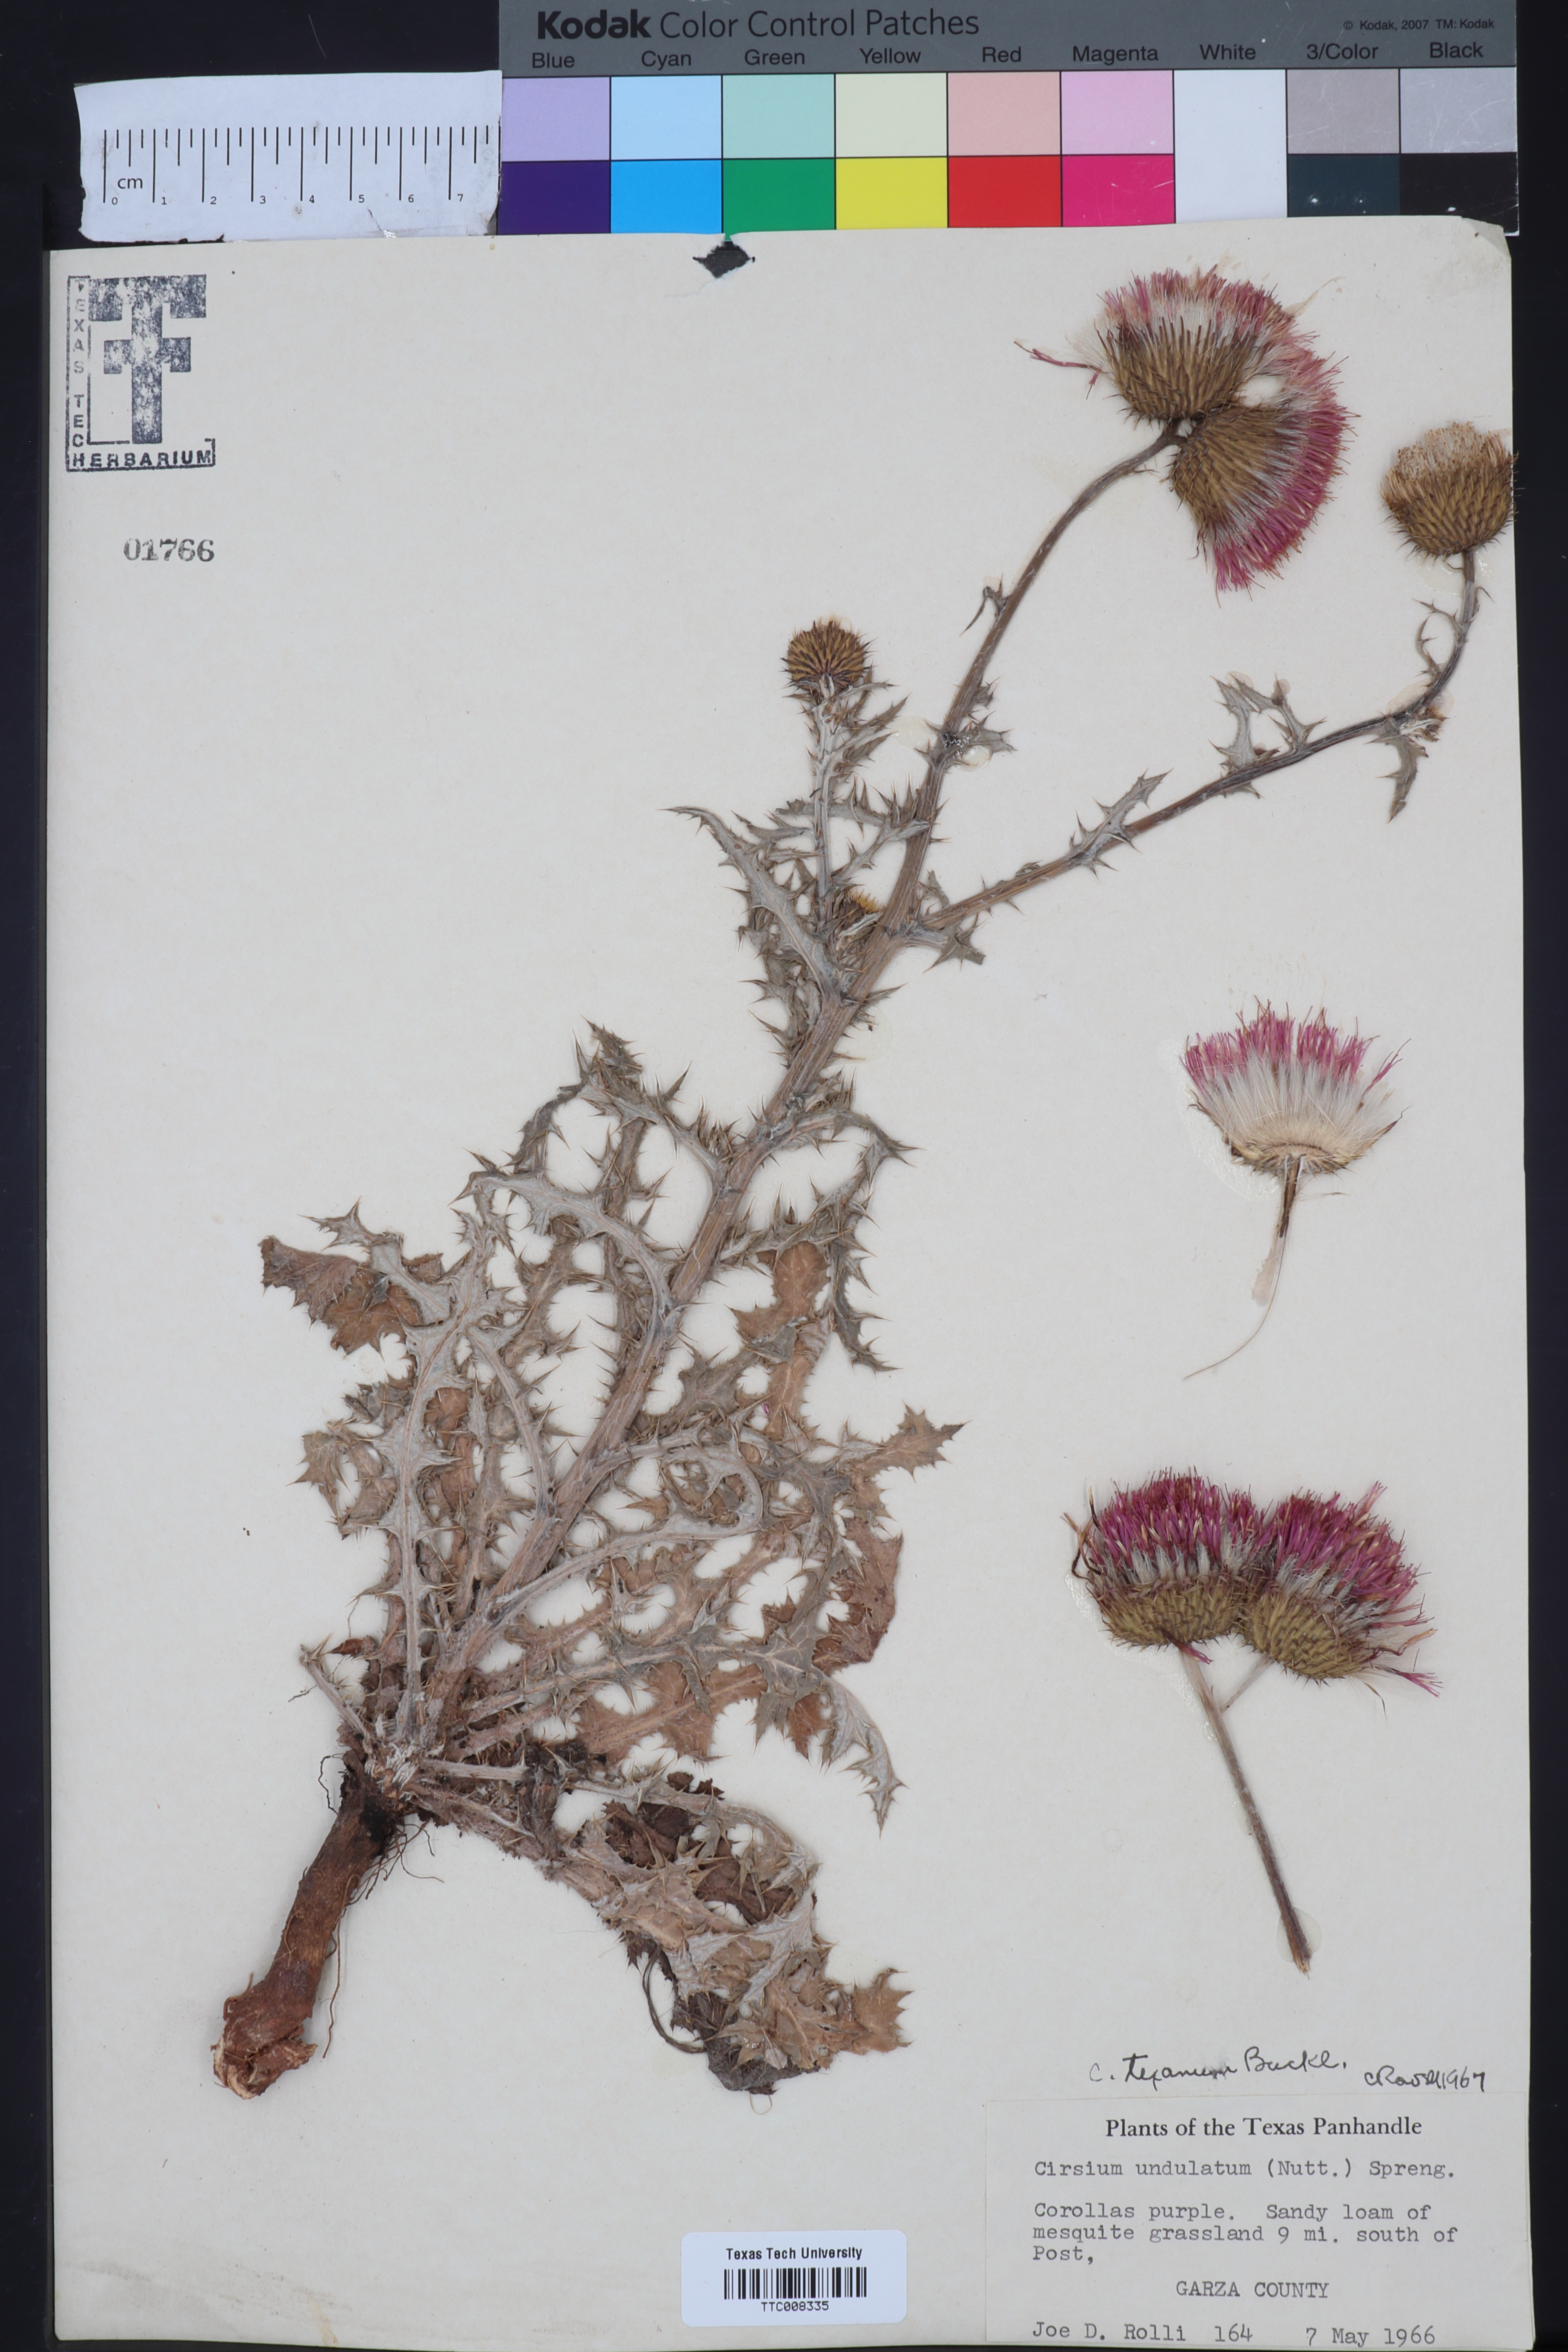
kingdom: Plantae
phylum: Tracheophyta
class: Magnoliopsida
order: Asterales
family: Asteraceae
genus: Cirsium
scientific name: Cirsium texanum
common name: Texas purple thistle
